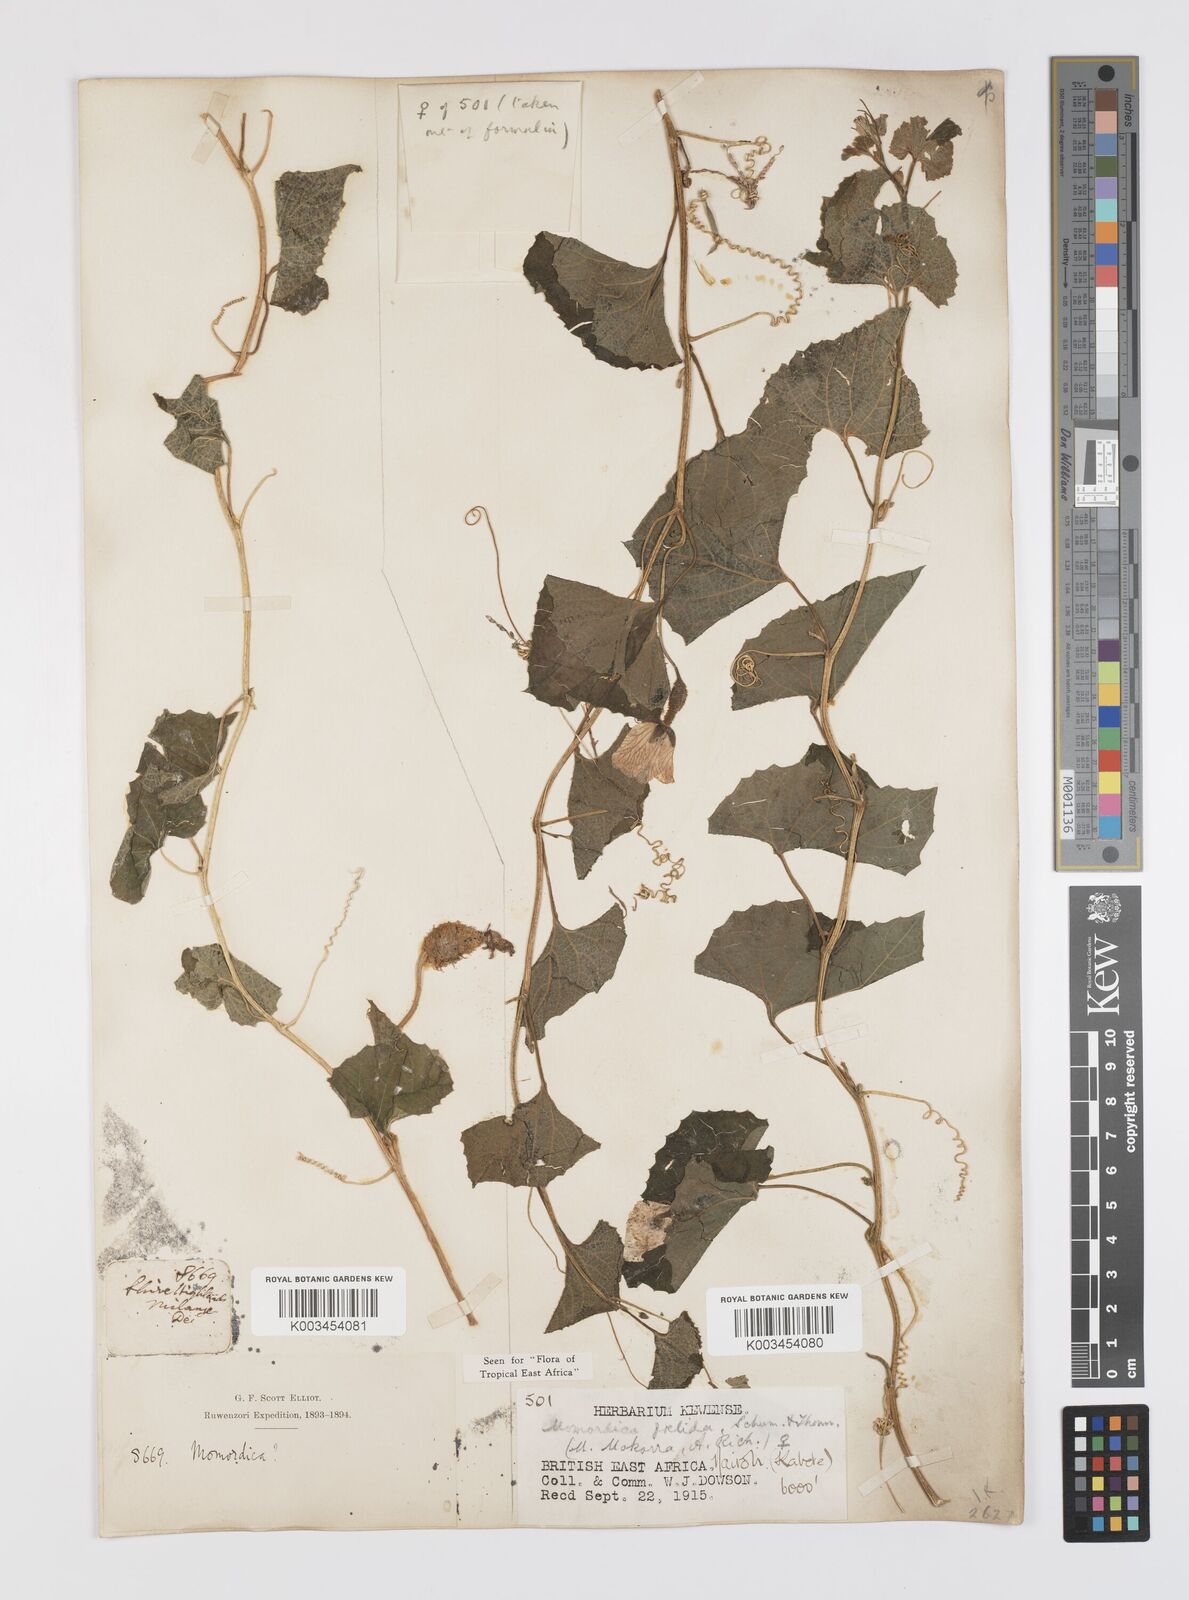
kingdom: Plantae
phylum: Tracheophyta
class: Magnoliopsida
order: Cucurbitales
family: Cucurbitaceae
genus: Momordica
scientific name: Momordica foetida
